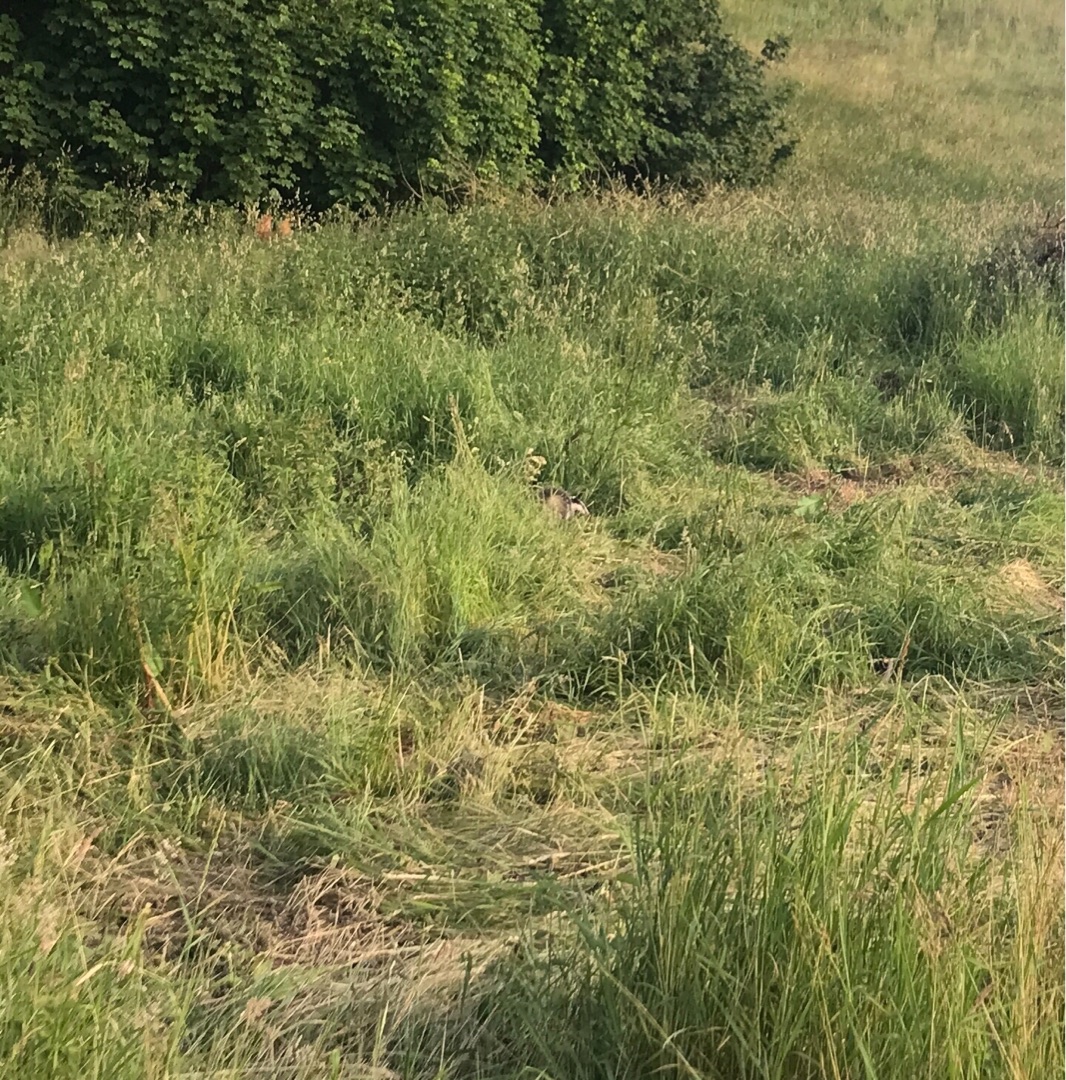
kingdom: Animalia
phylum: Chordata
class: Mammalia
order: Carnivora
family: Mustelidae
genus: Meles
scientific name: Meles meles
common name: Grævling
